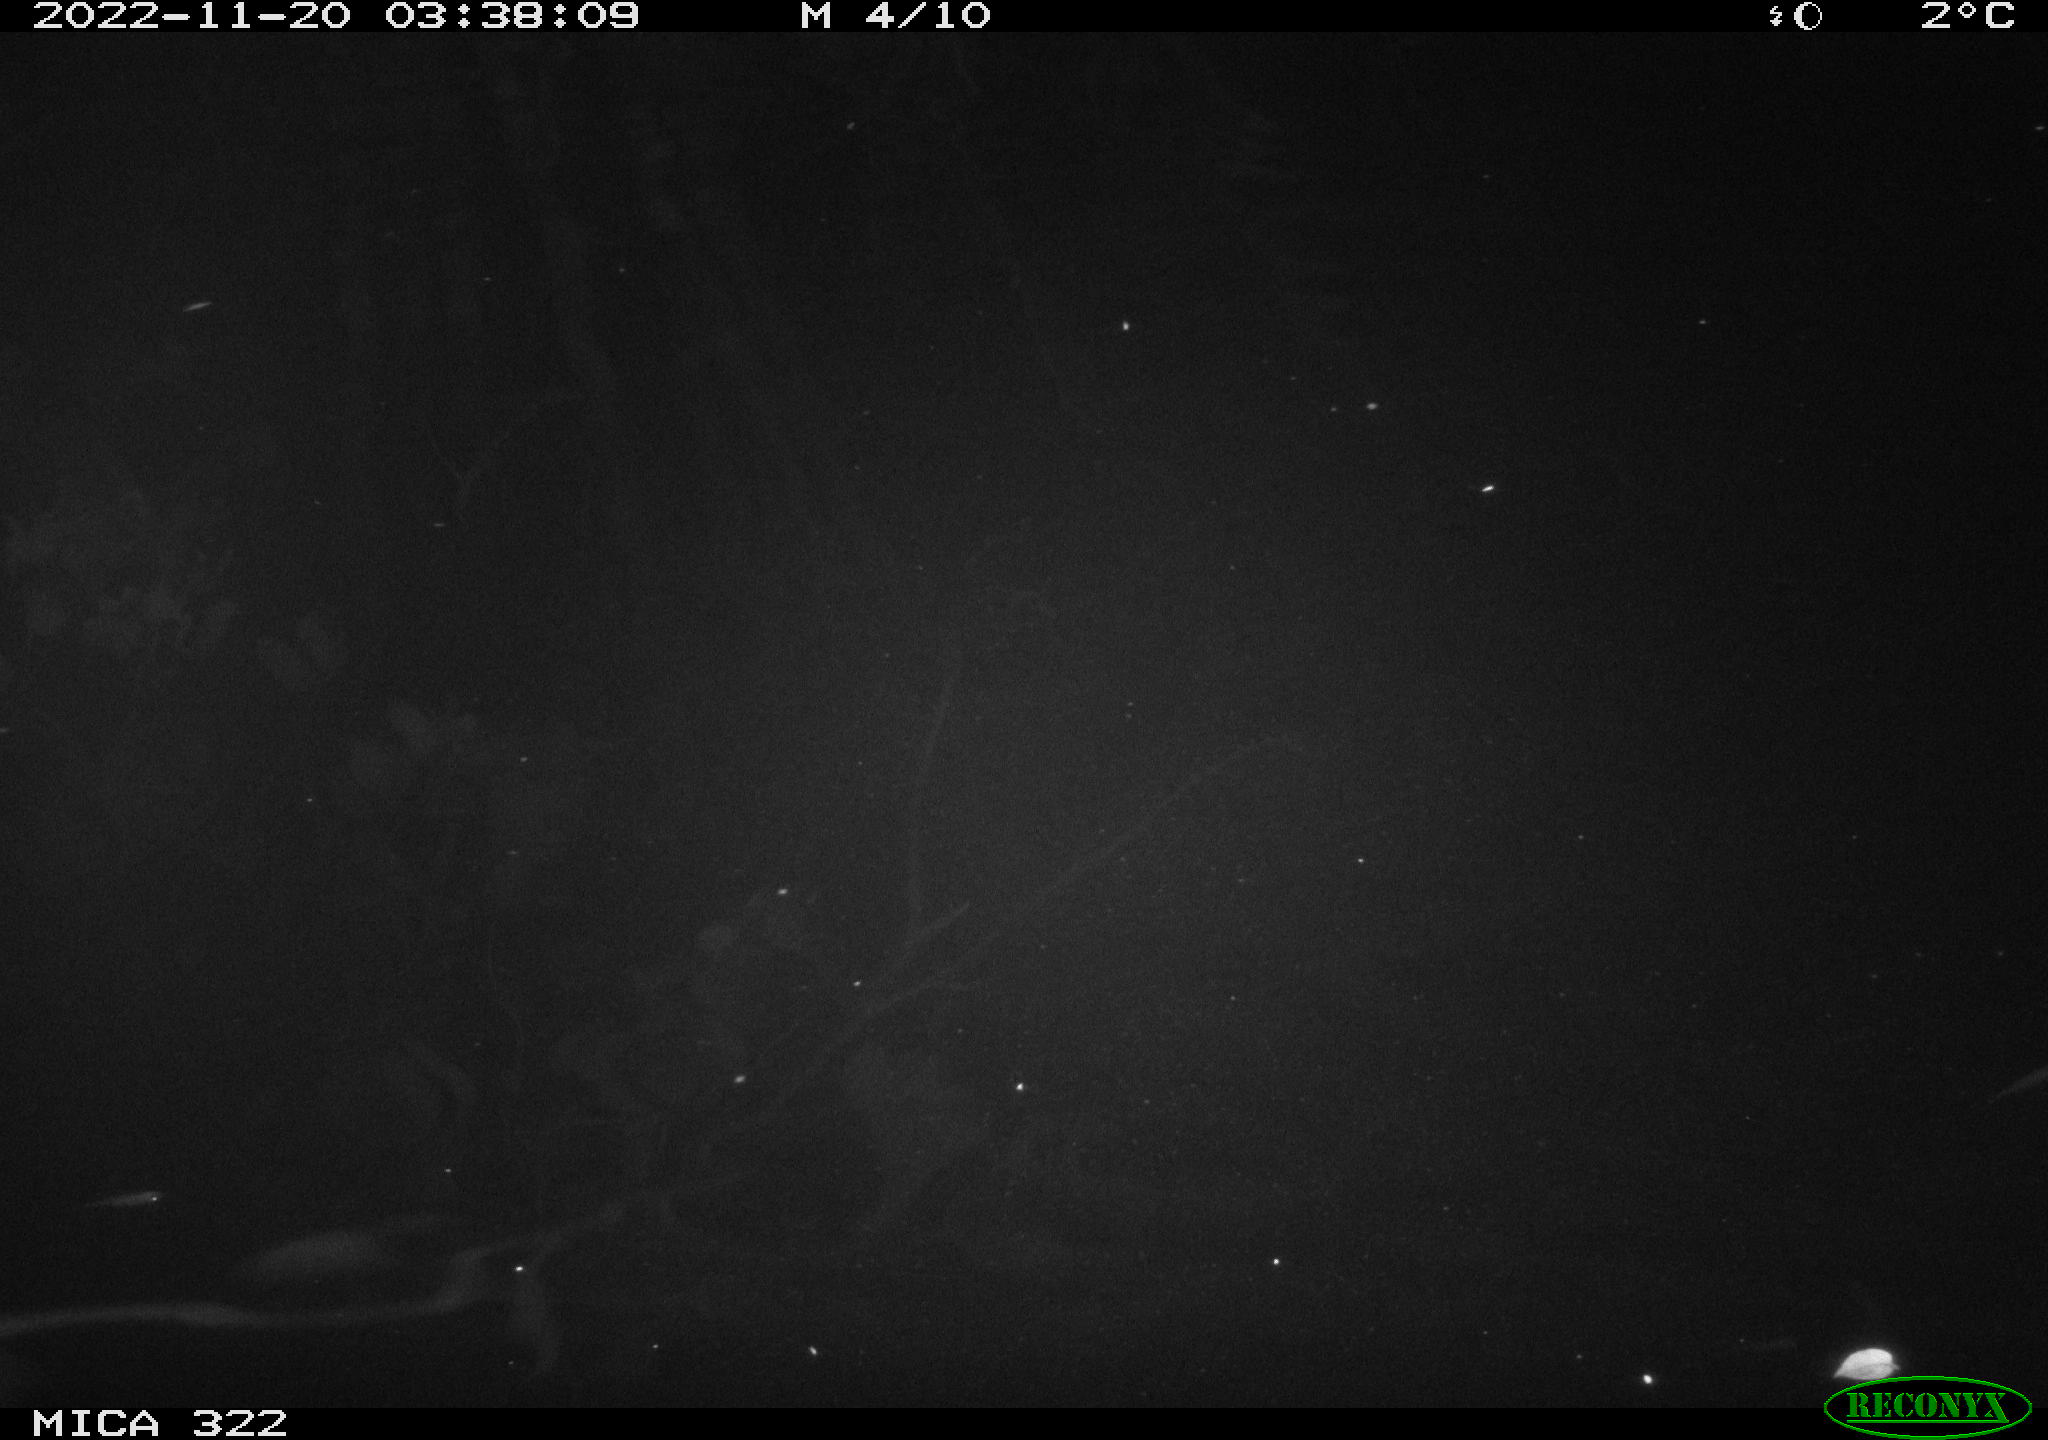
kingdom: Animalia
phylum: Chordata
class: Mammalia
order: Rodentia
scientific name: Rodentia
